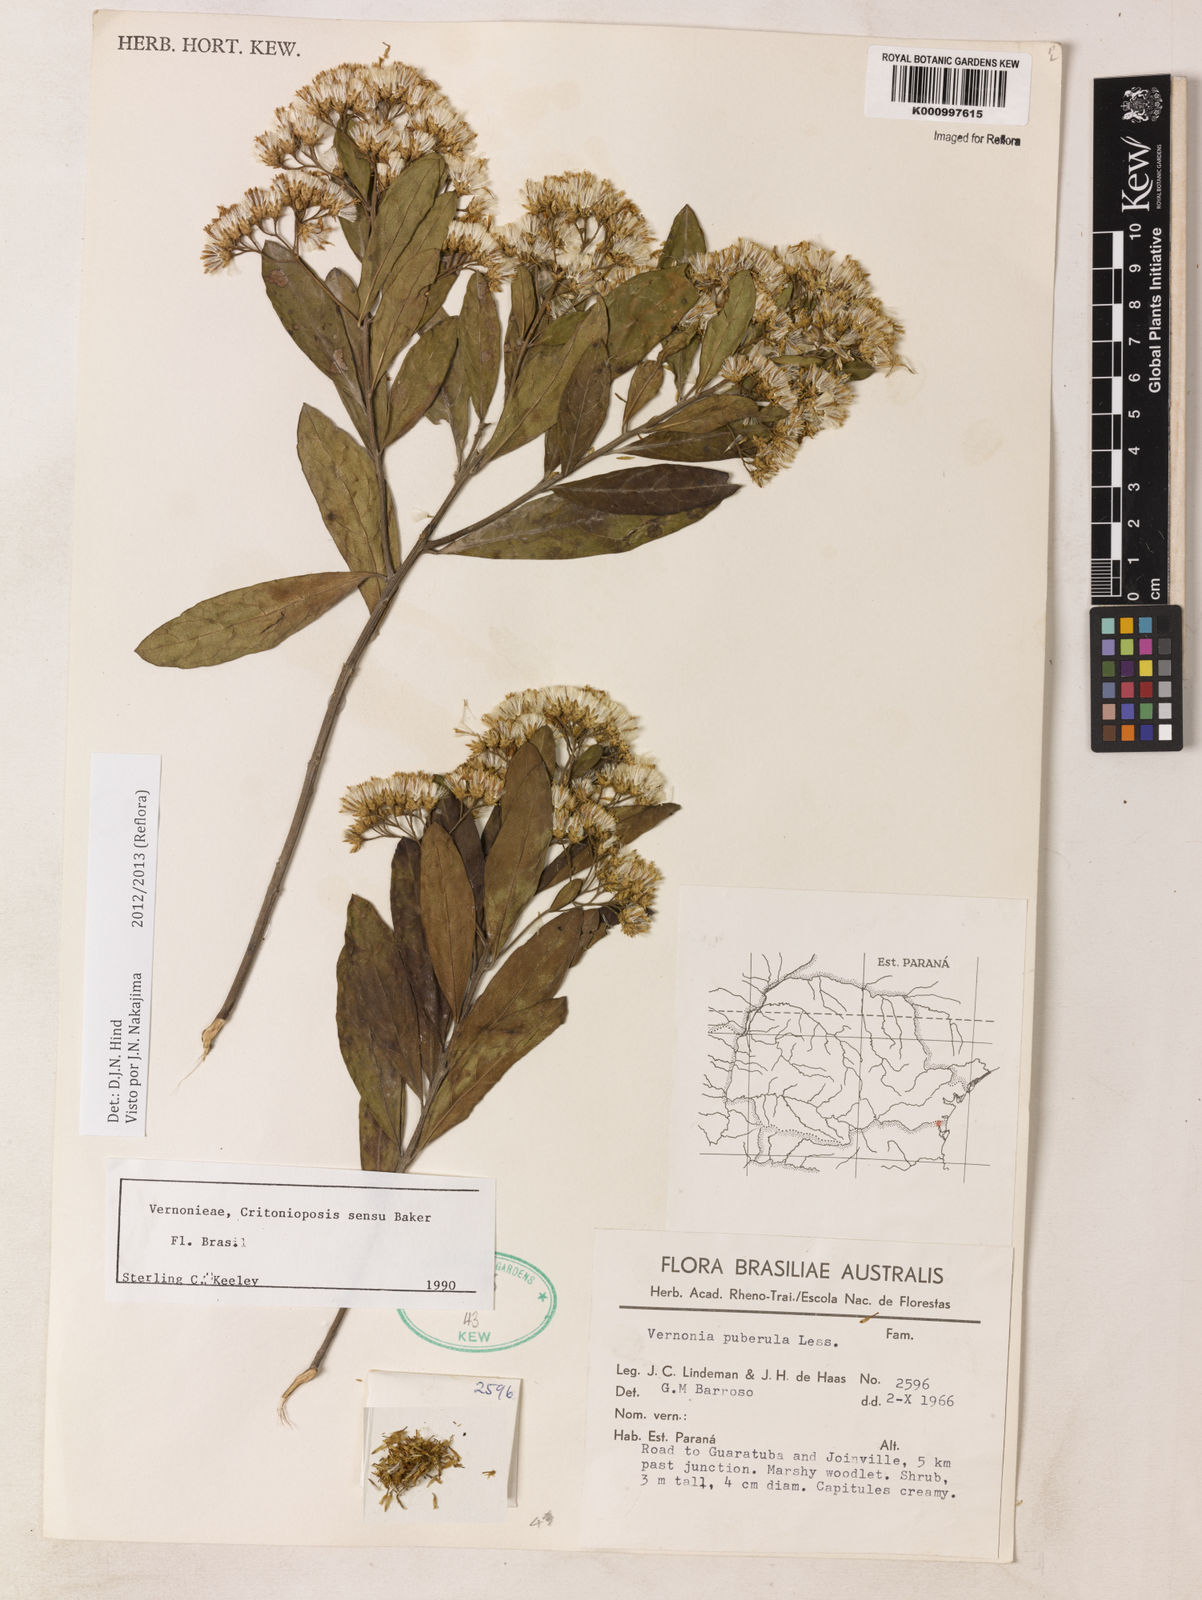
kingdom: Plantae
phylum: Tracheophyta
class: Magnoliopsida
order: Asterales
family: Asteraceae
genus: Vernonanthura
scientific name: Vernonanthura puberula
